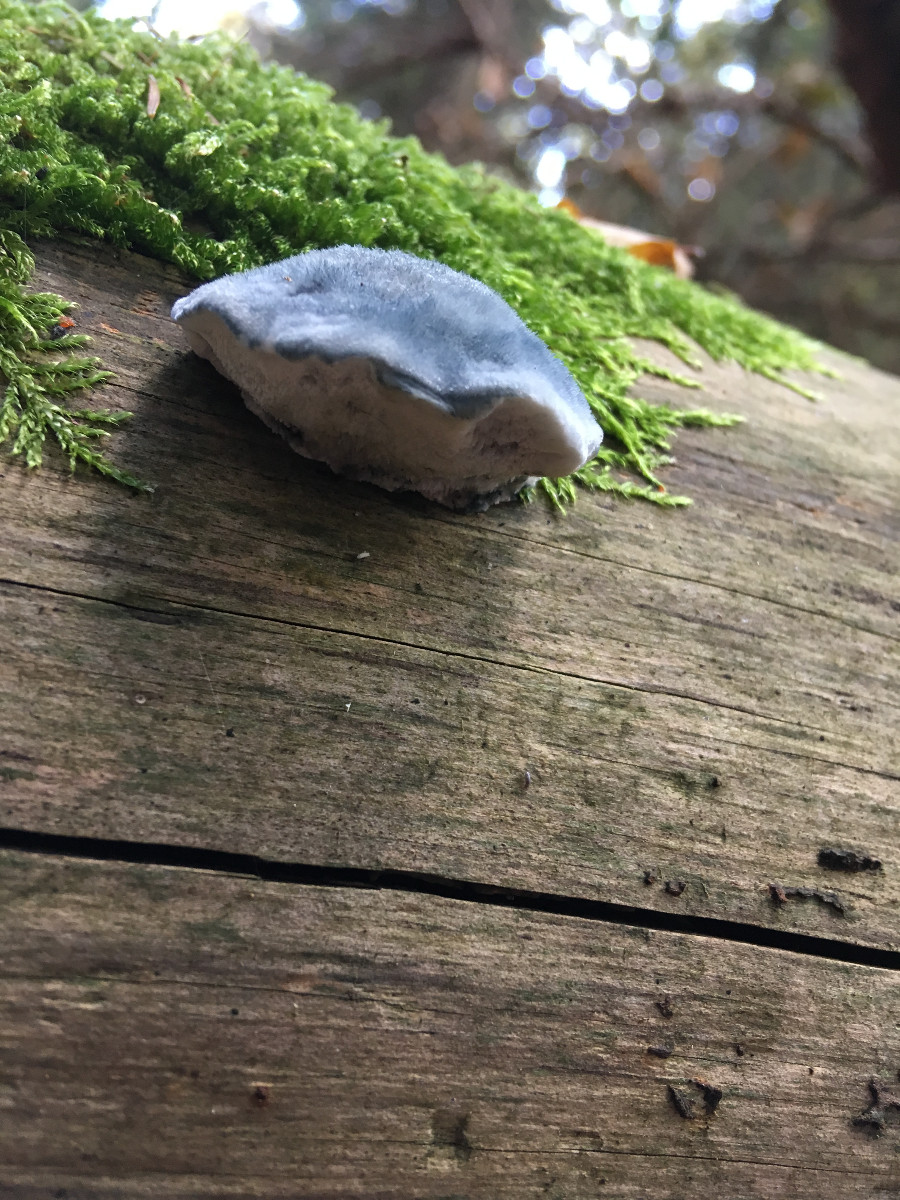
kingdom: Fungi
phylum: Basidiomycota
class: Agaricomycetes
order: Polyporales
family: Polyporaceae
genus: Cyanosporus
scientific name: Cyanosporus caesius
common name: blålig kødporesvamp
